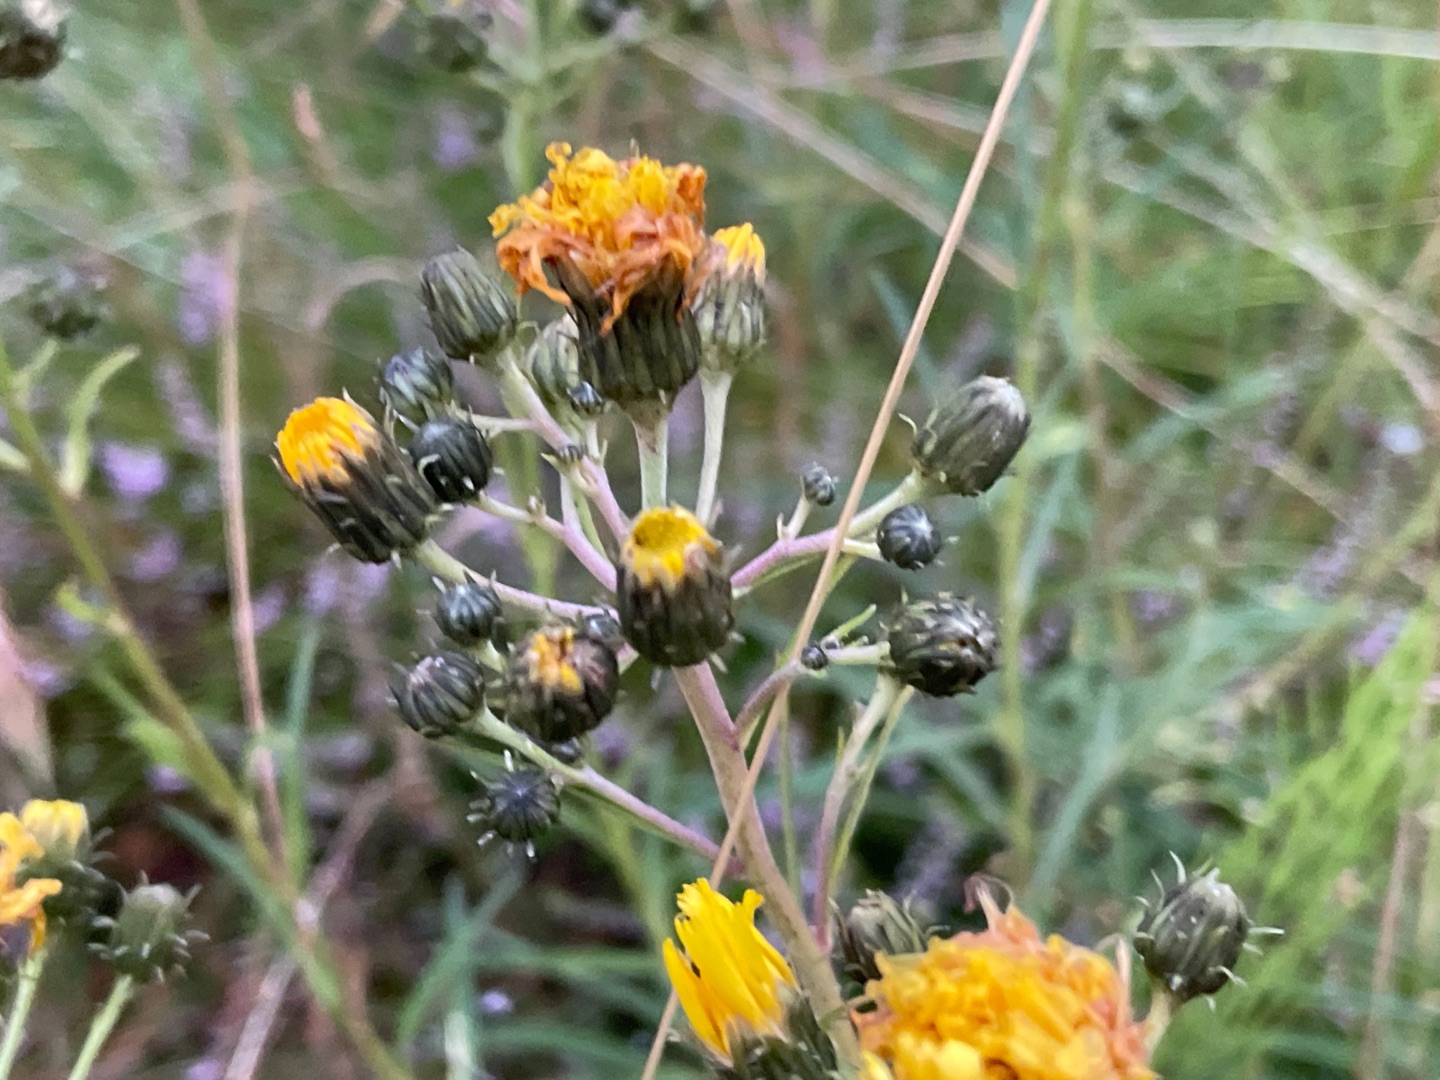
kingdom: Plantae
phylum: Tracheophyta
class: Magnoliopsida
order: Asterales
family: Asteraceae
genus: Hieracium
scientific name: Hieracium umbellatum
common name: Smalbladet høgeurt
